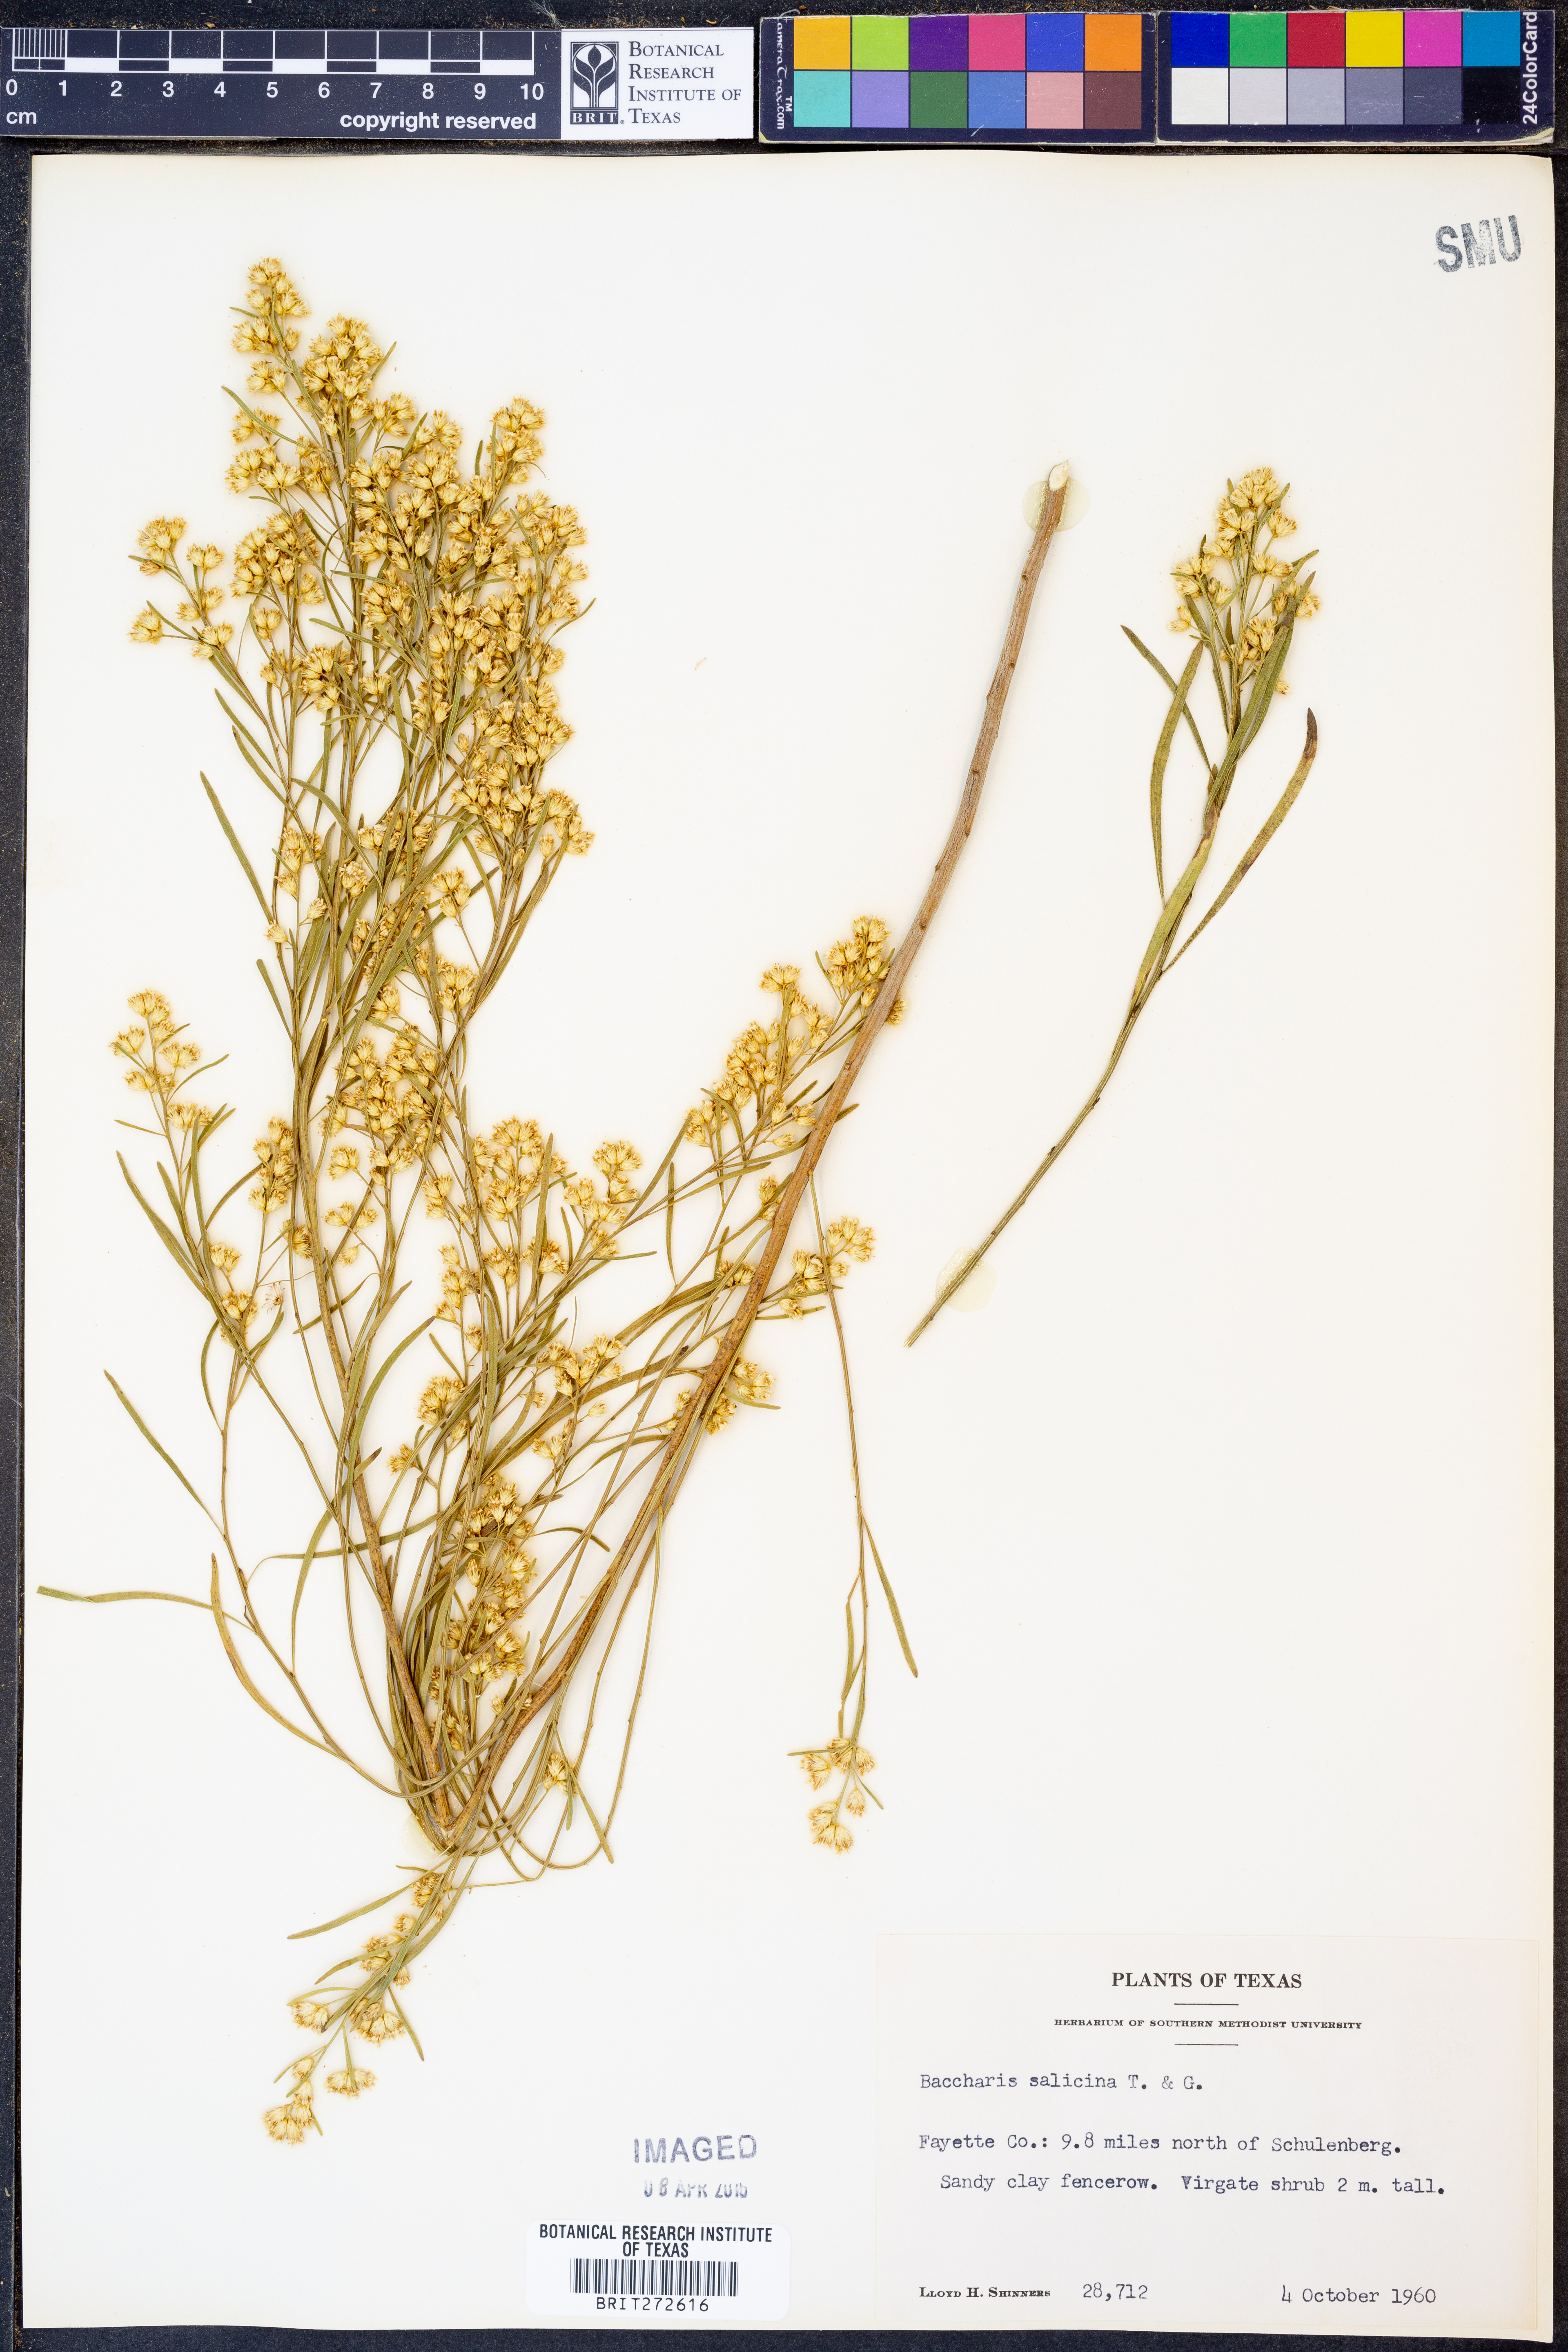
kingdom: Plantae
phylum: Tracheophyta
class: Magnoliopsida
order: Asterales
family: Asteraceae
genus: Baccharis
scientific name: Baccharis salicina
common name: Willow baccharis
